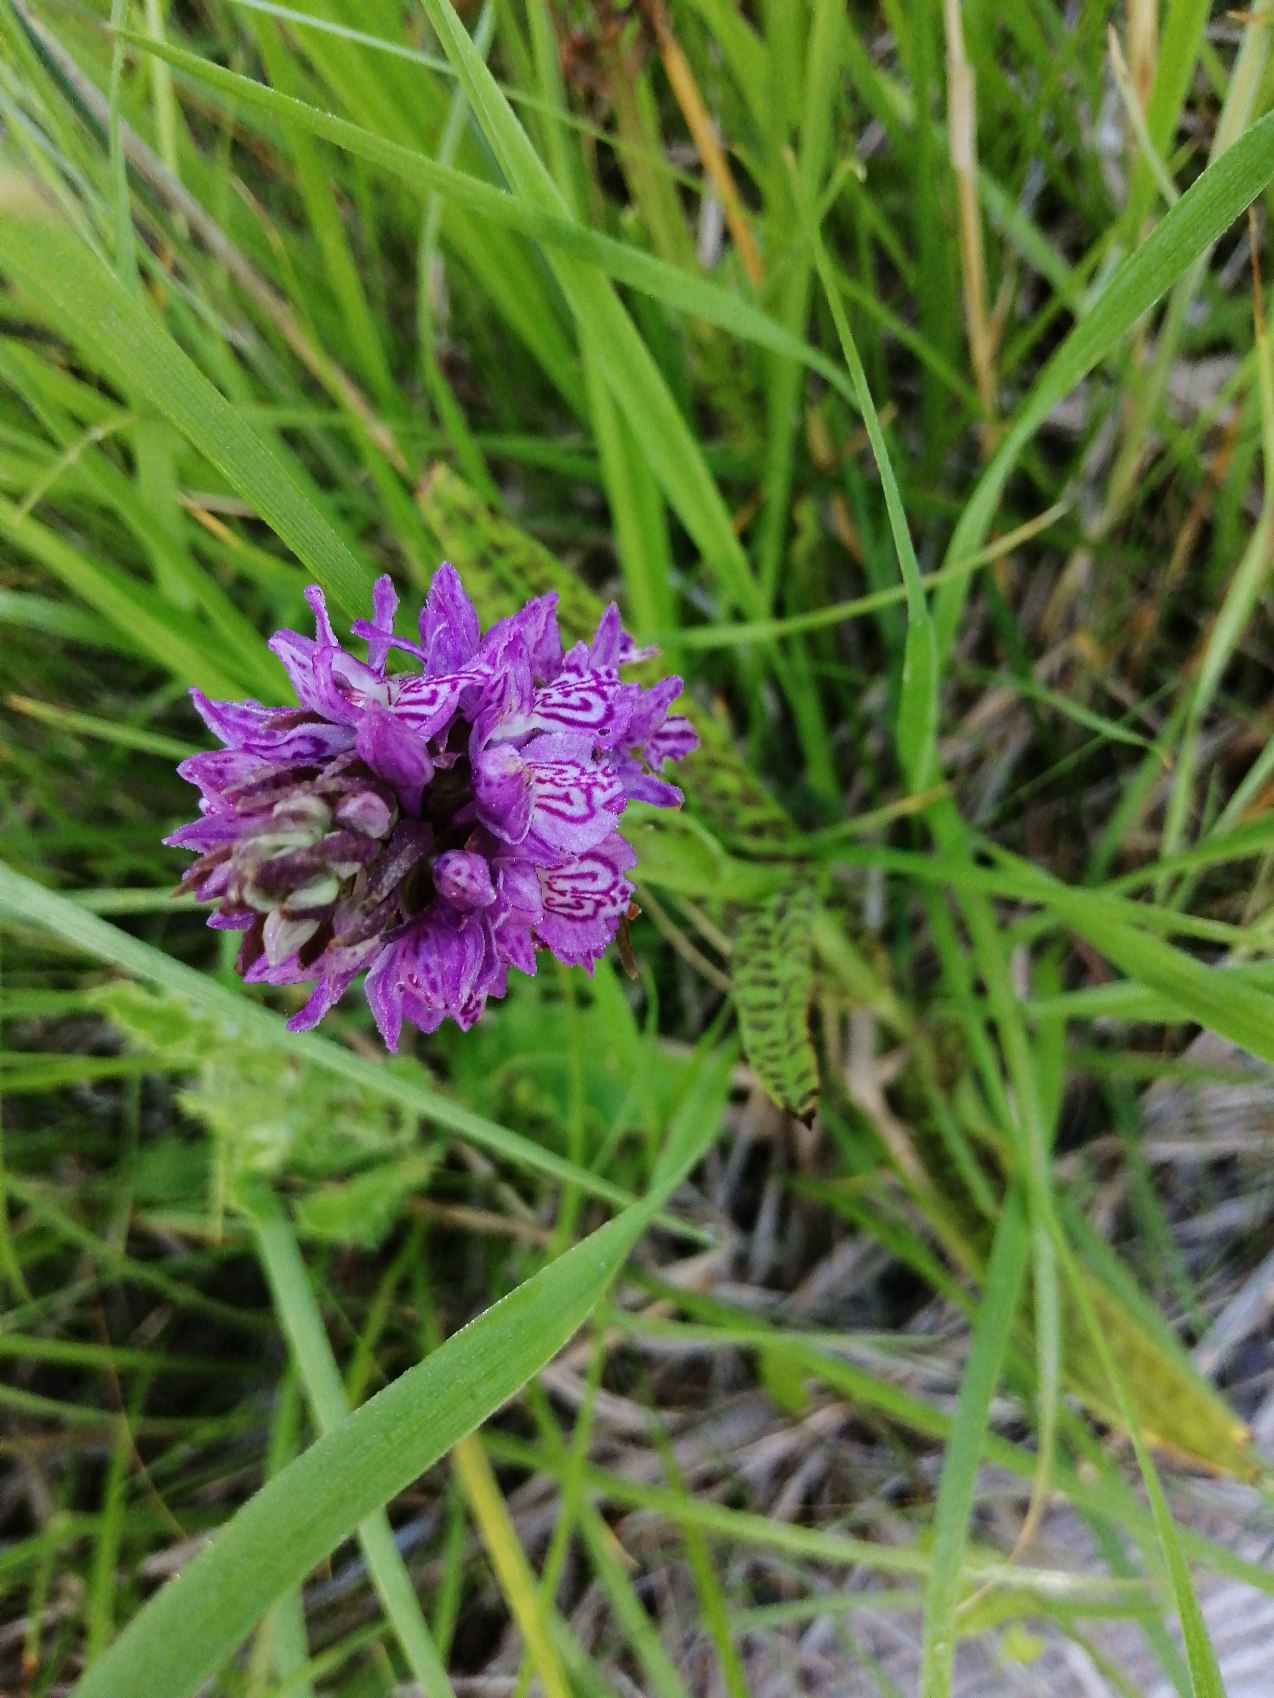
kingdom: Plantae
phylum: Tracheophyta
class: Liliopsida
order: Asparagales
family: Orchidaceae
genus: Dactylorhiza
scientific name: Dactylorhiza majalis
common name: Ringplettet gøgeurt
